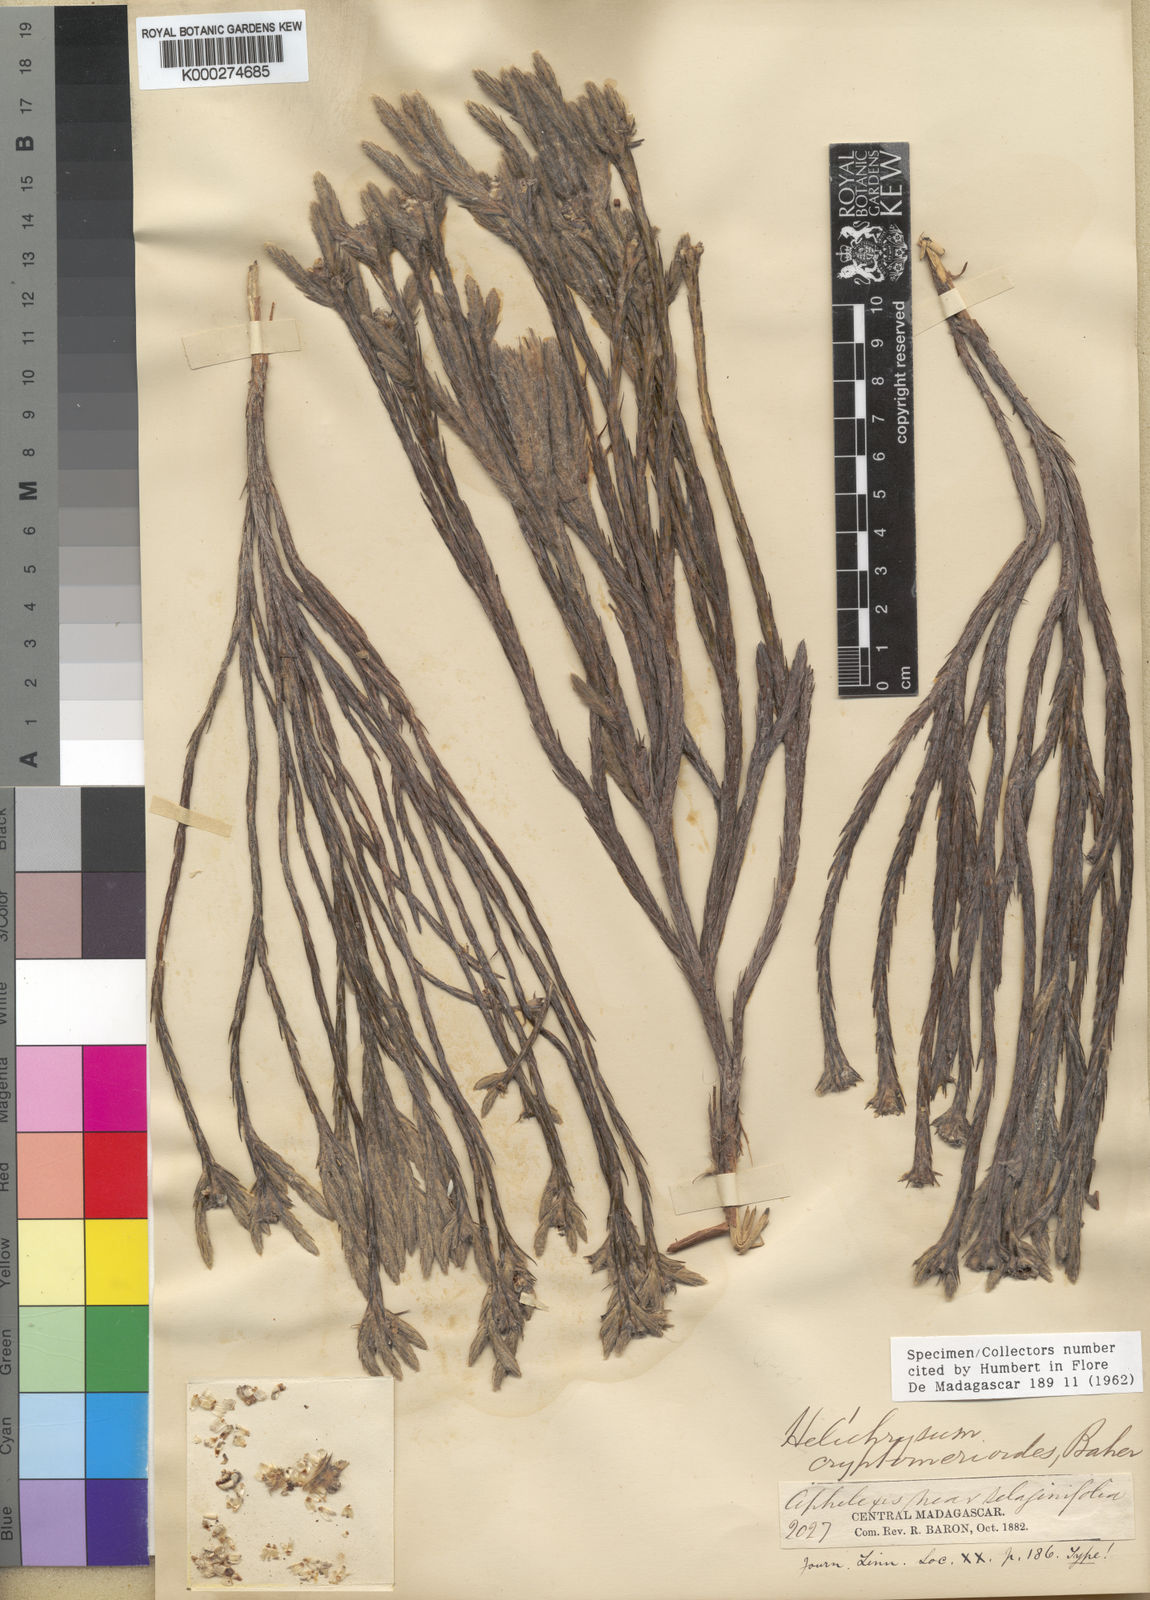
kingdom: Plantae
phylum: Tracheophyta
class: Magnoliopsida
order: Asterales
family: Asteraceae
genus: Helichrysum
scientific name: Helichrysum cryptomerioides
